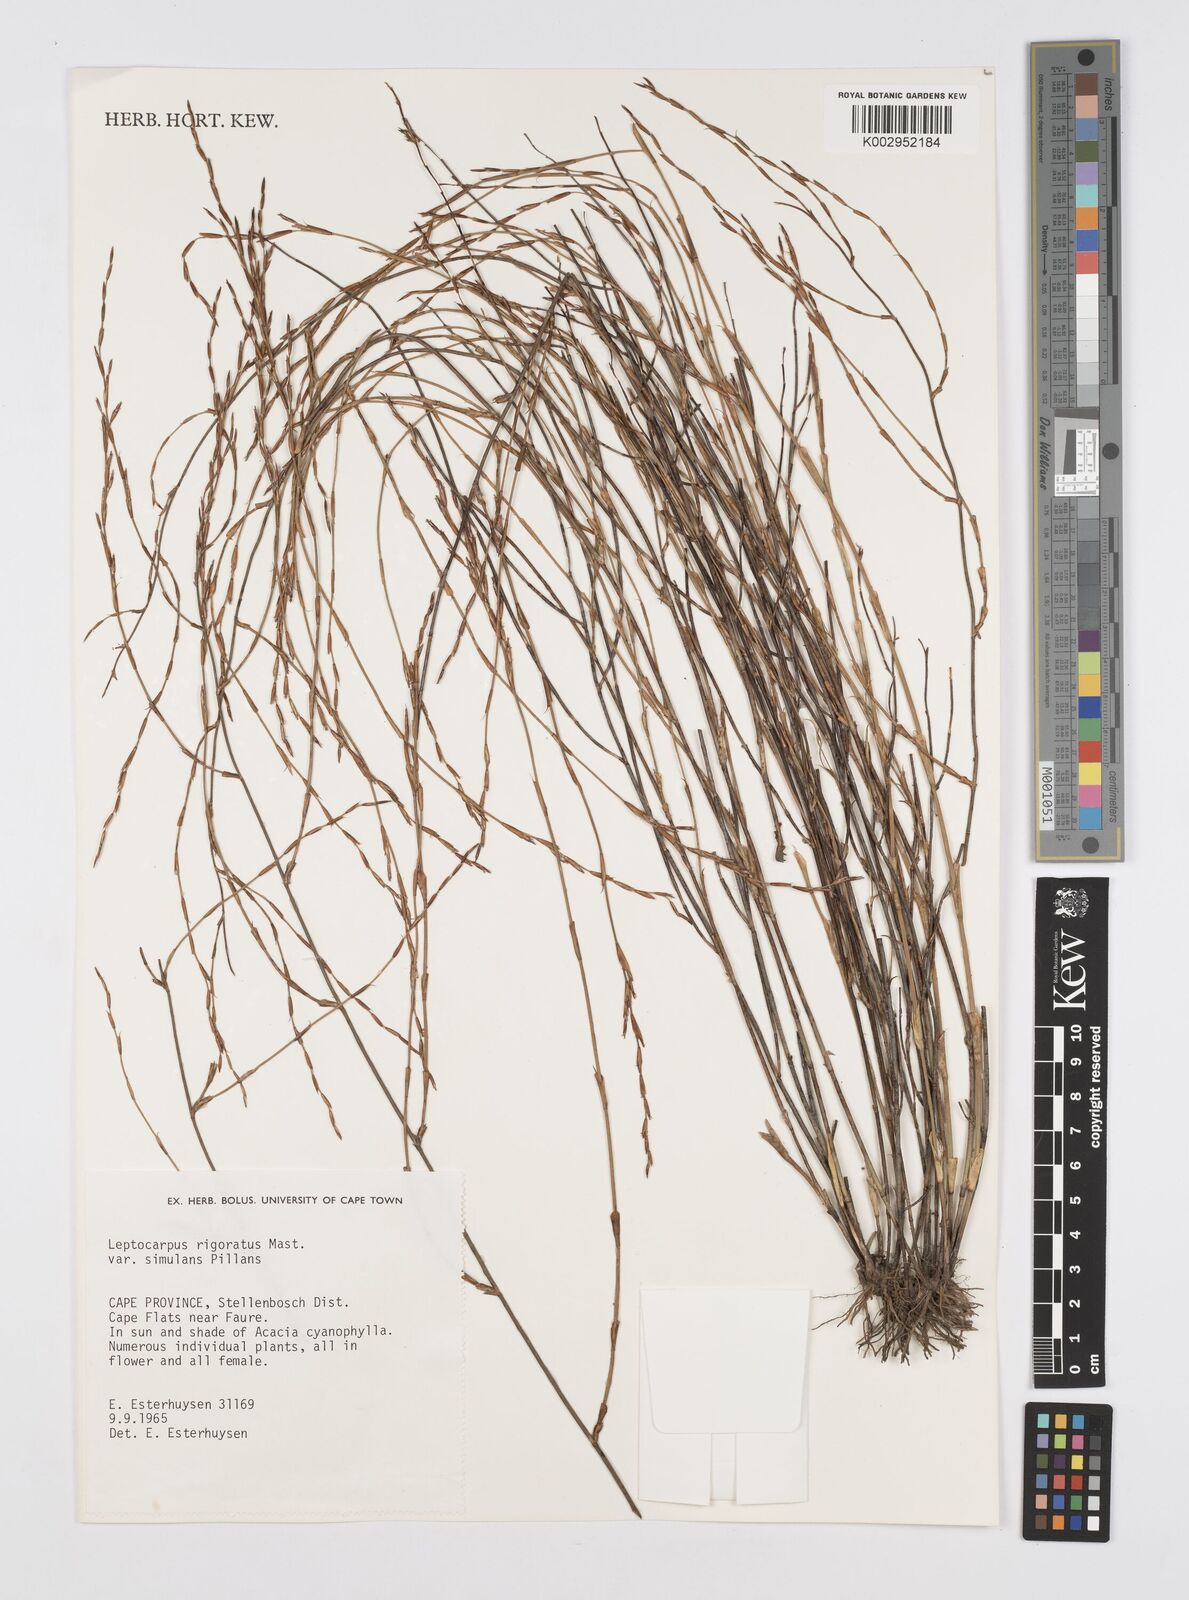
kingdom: Plantae
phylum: Tracheophyta
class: Liliopsida
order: Poales
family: Restionaceae
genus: Restio
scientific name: Restio rigoratus
